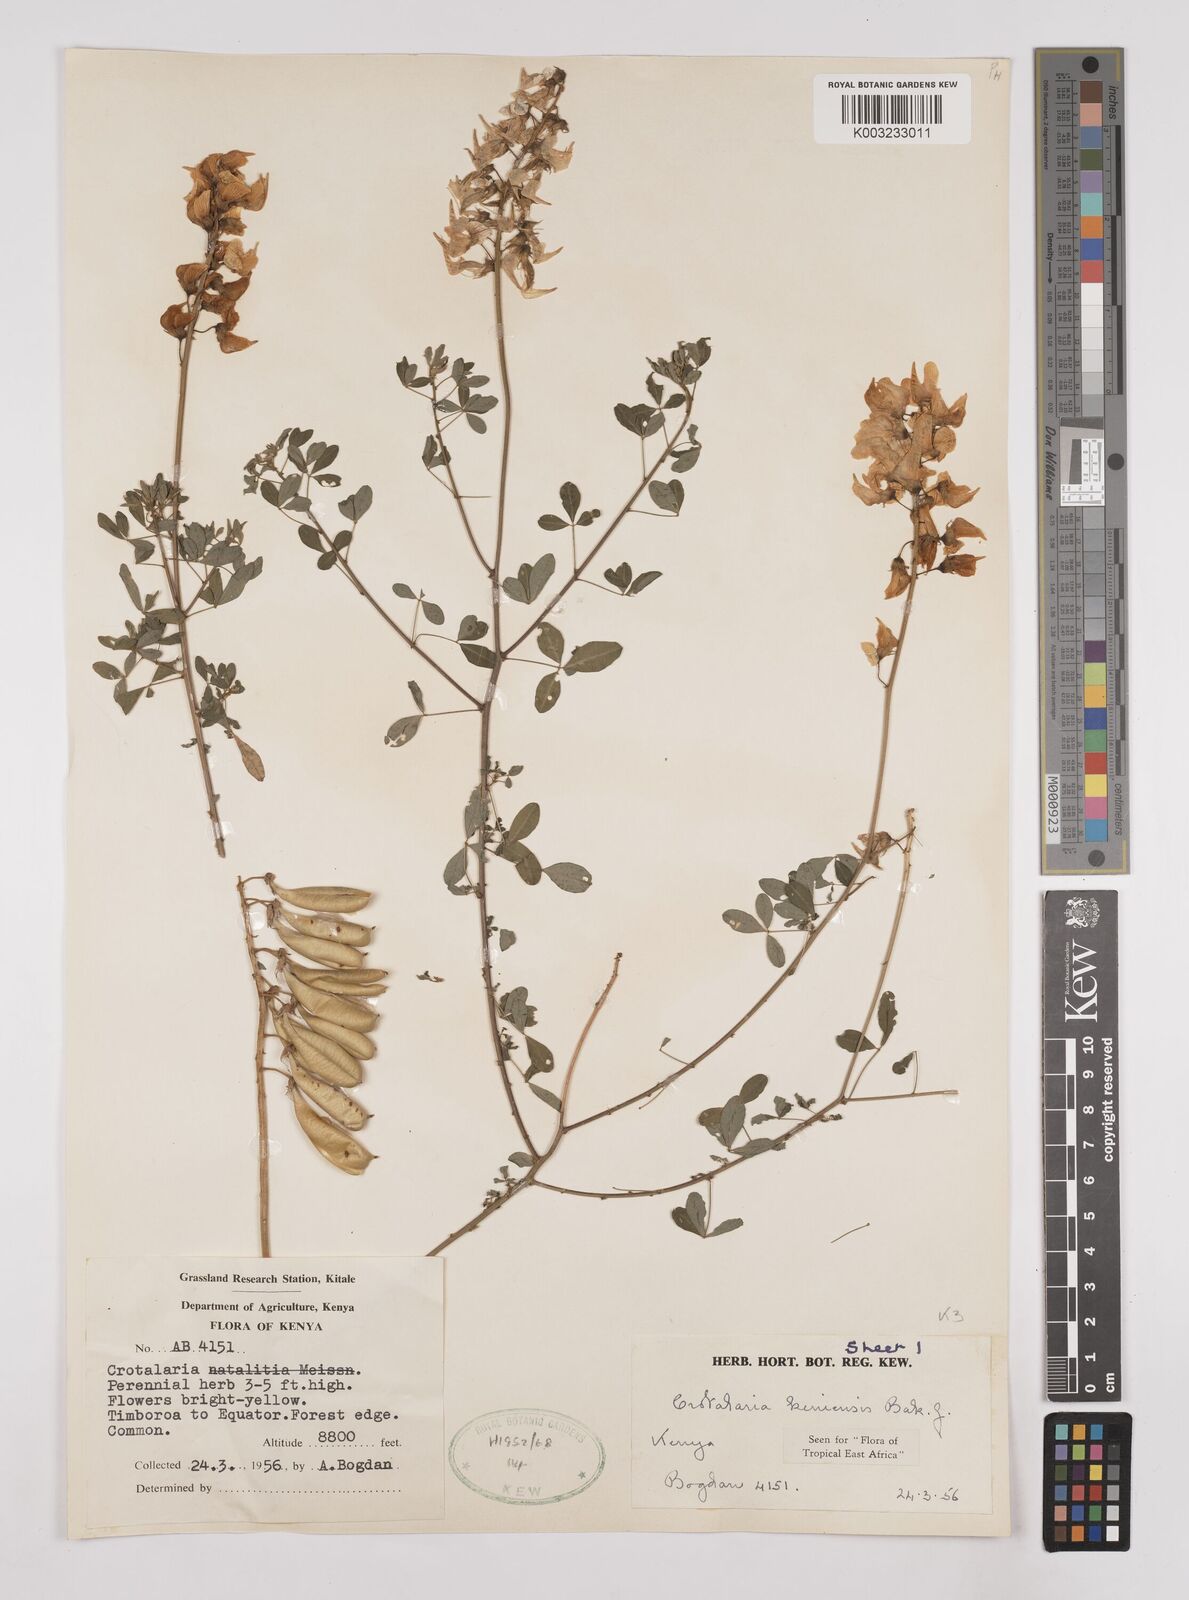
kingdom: Plantae
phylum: Tracheophyta
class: Magnoliopsida
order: Fabales
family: Fabaceae
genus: Crotalaria
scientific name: Crotalaria keniensis
